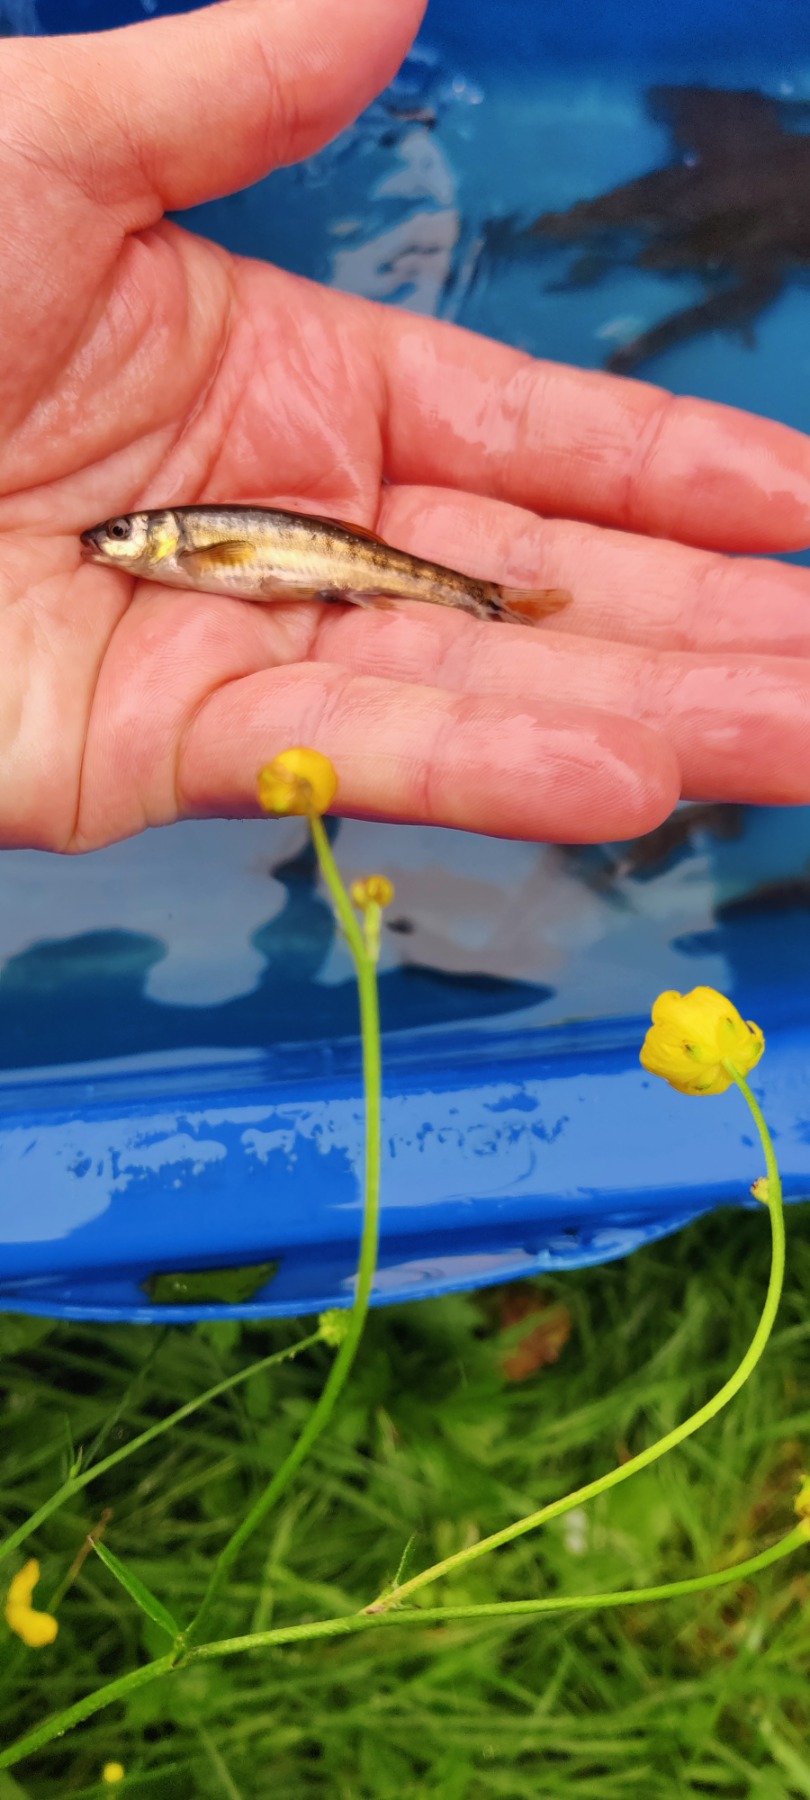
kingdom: Animalia
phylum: Chordata
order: Cypriniformes
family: Cyprinidae
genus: Phoxinus
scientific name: Phoxinus phoxinus
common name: Elritse
